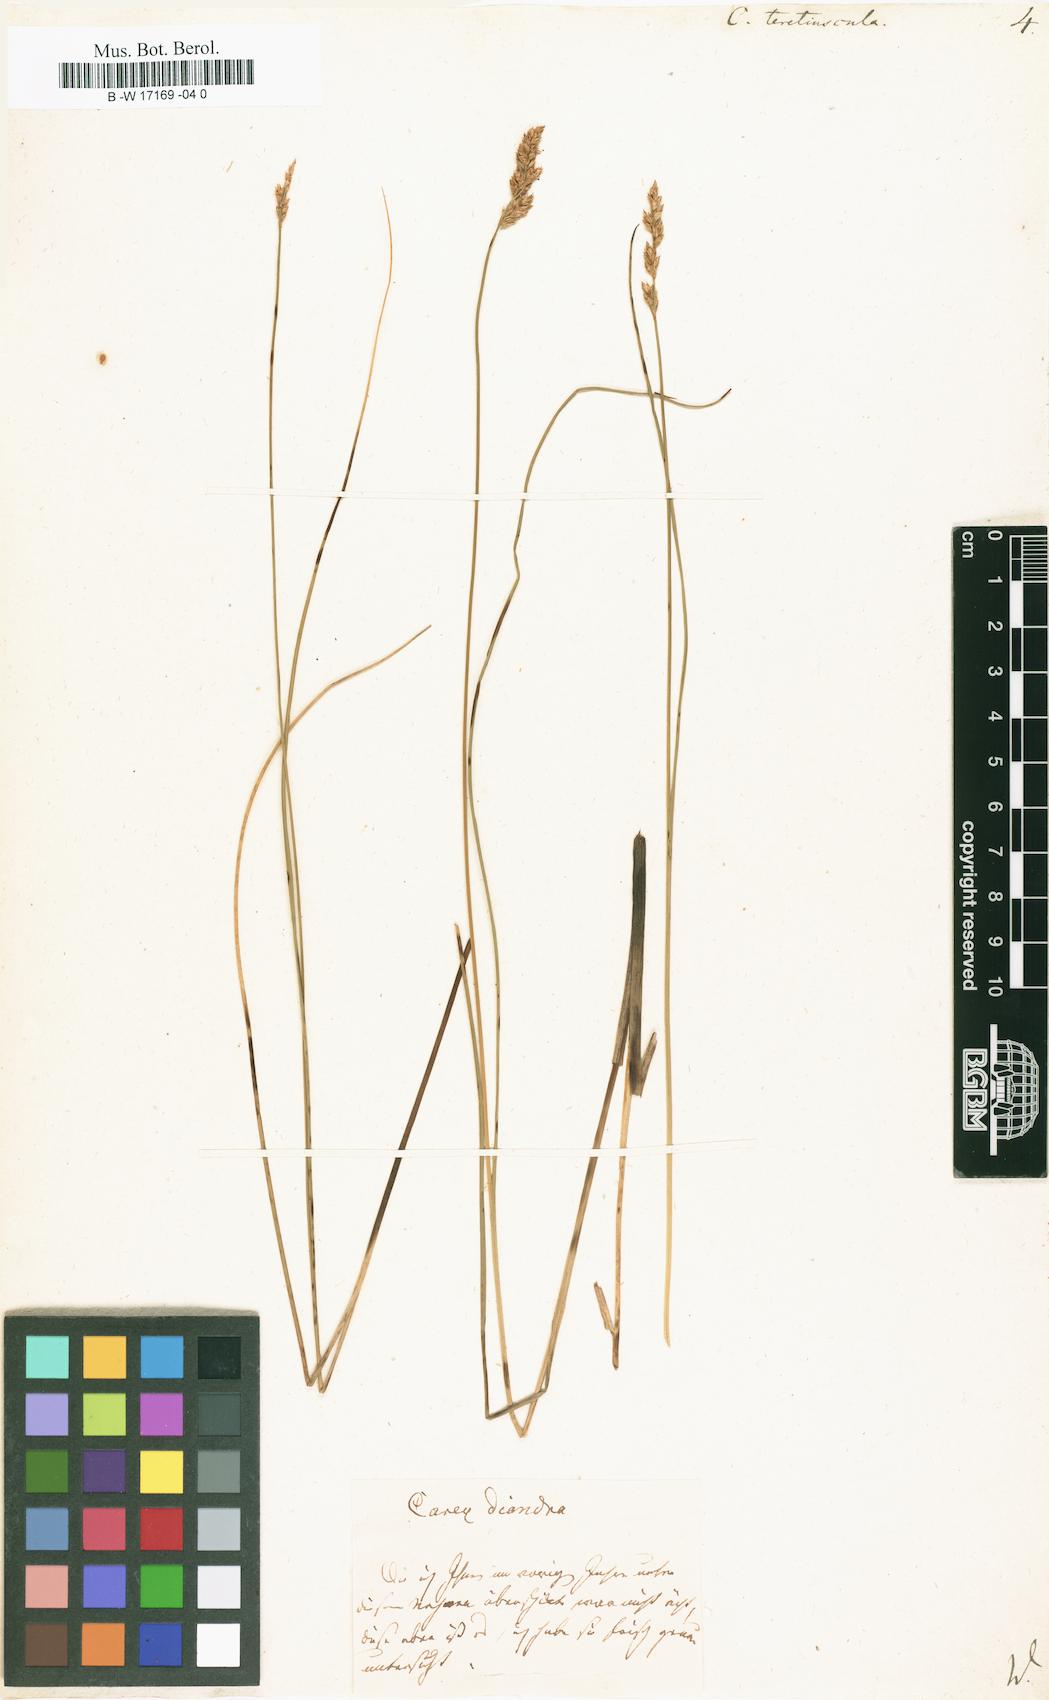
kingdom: Plantae
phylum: Tracheophyta
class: Liliopsida
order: Poales
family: Cyperaceae
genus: Carex
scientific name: Carex diandra
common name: Lesser tussock-sedge
